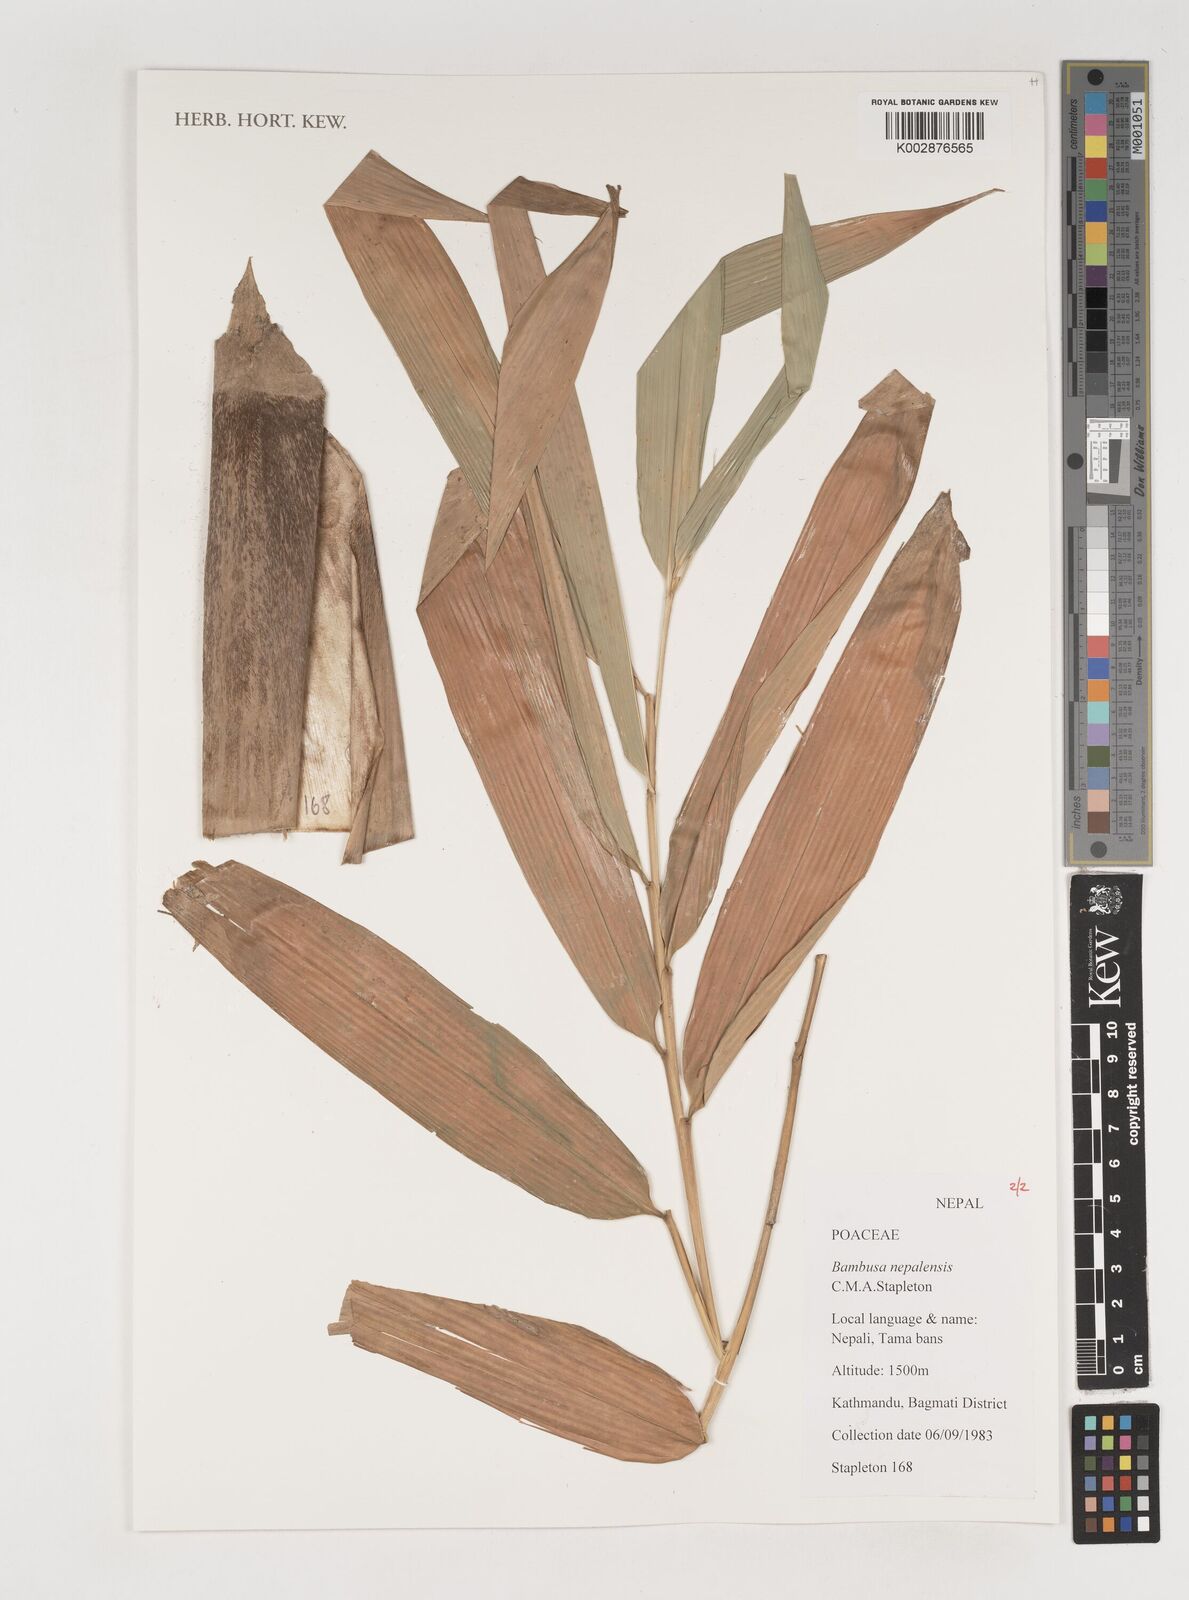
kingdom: Plantae
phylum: Tracheophyta
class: Liliopsida
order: Poales
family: Poaceae
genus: Bambusa
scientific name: Bambusa nepalensis
